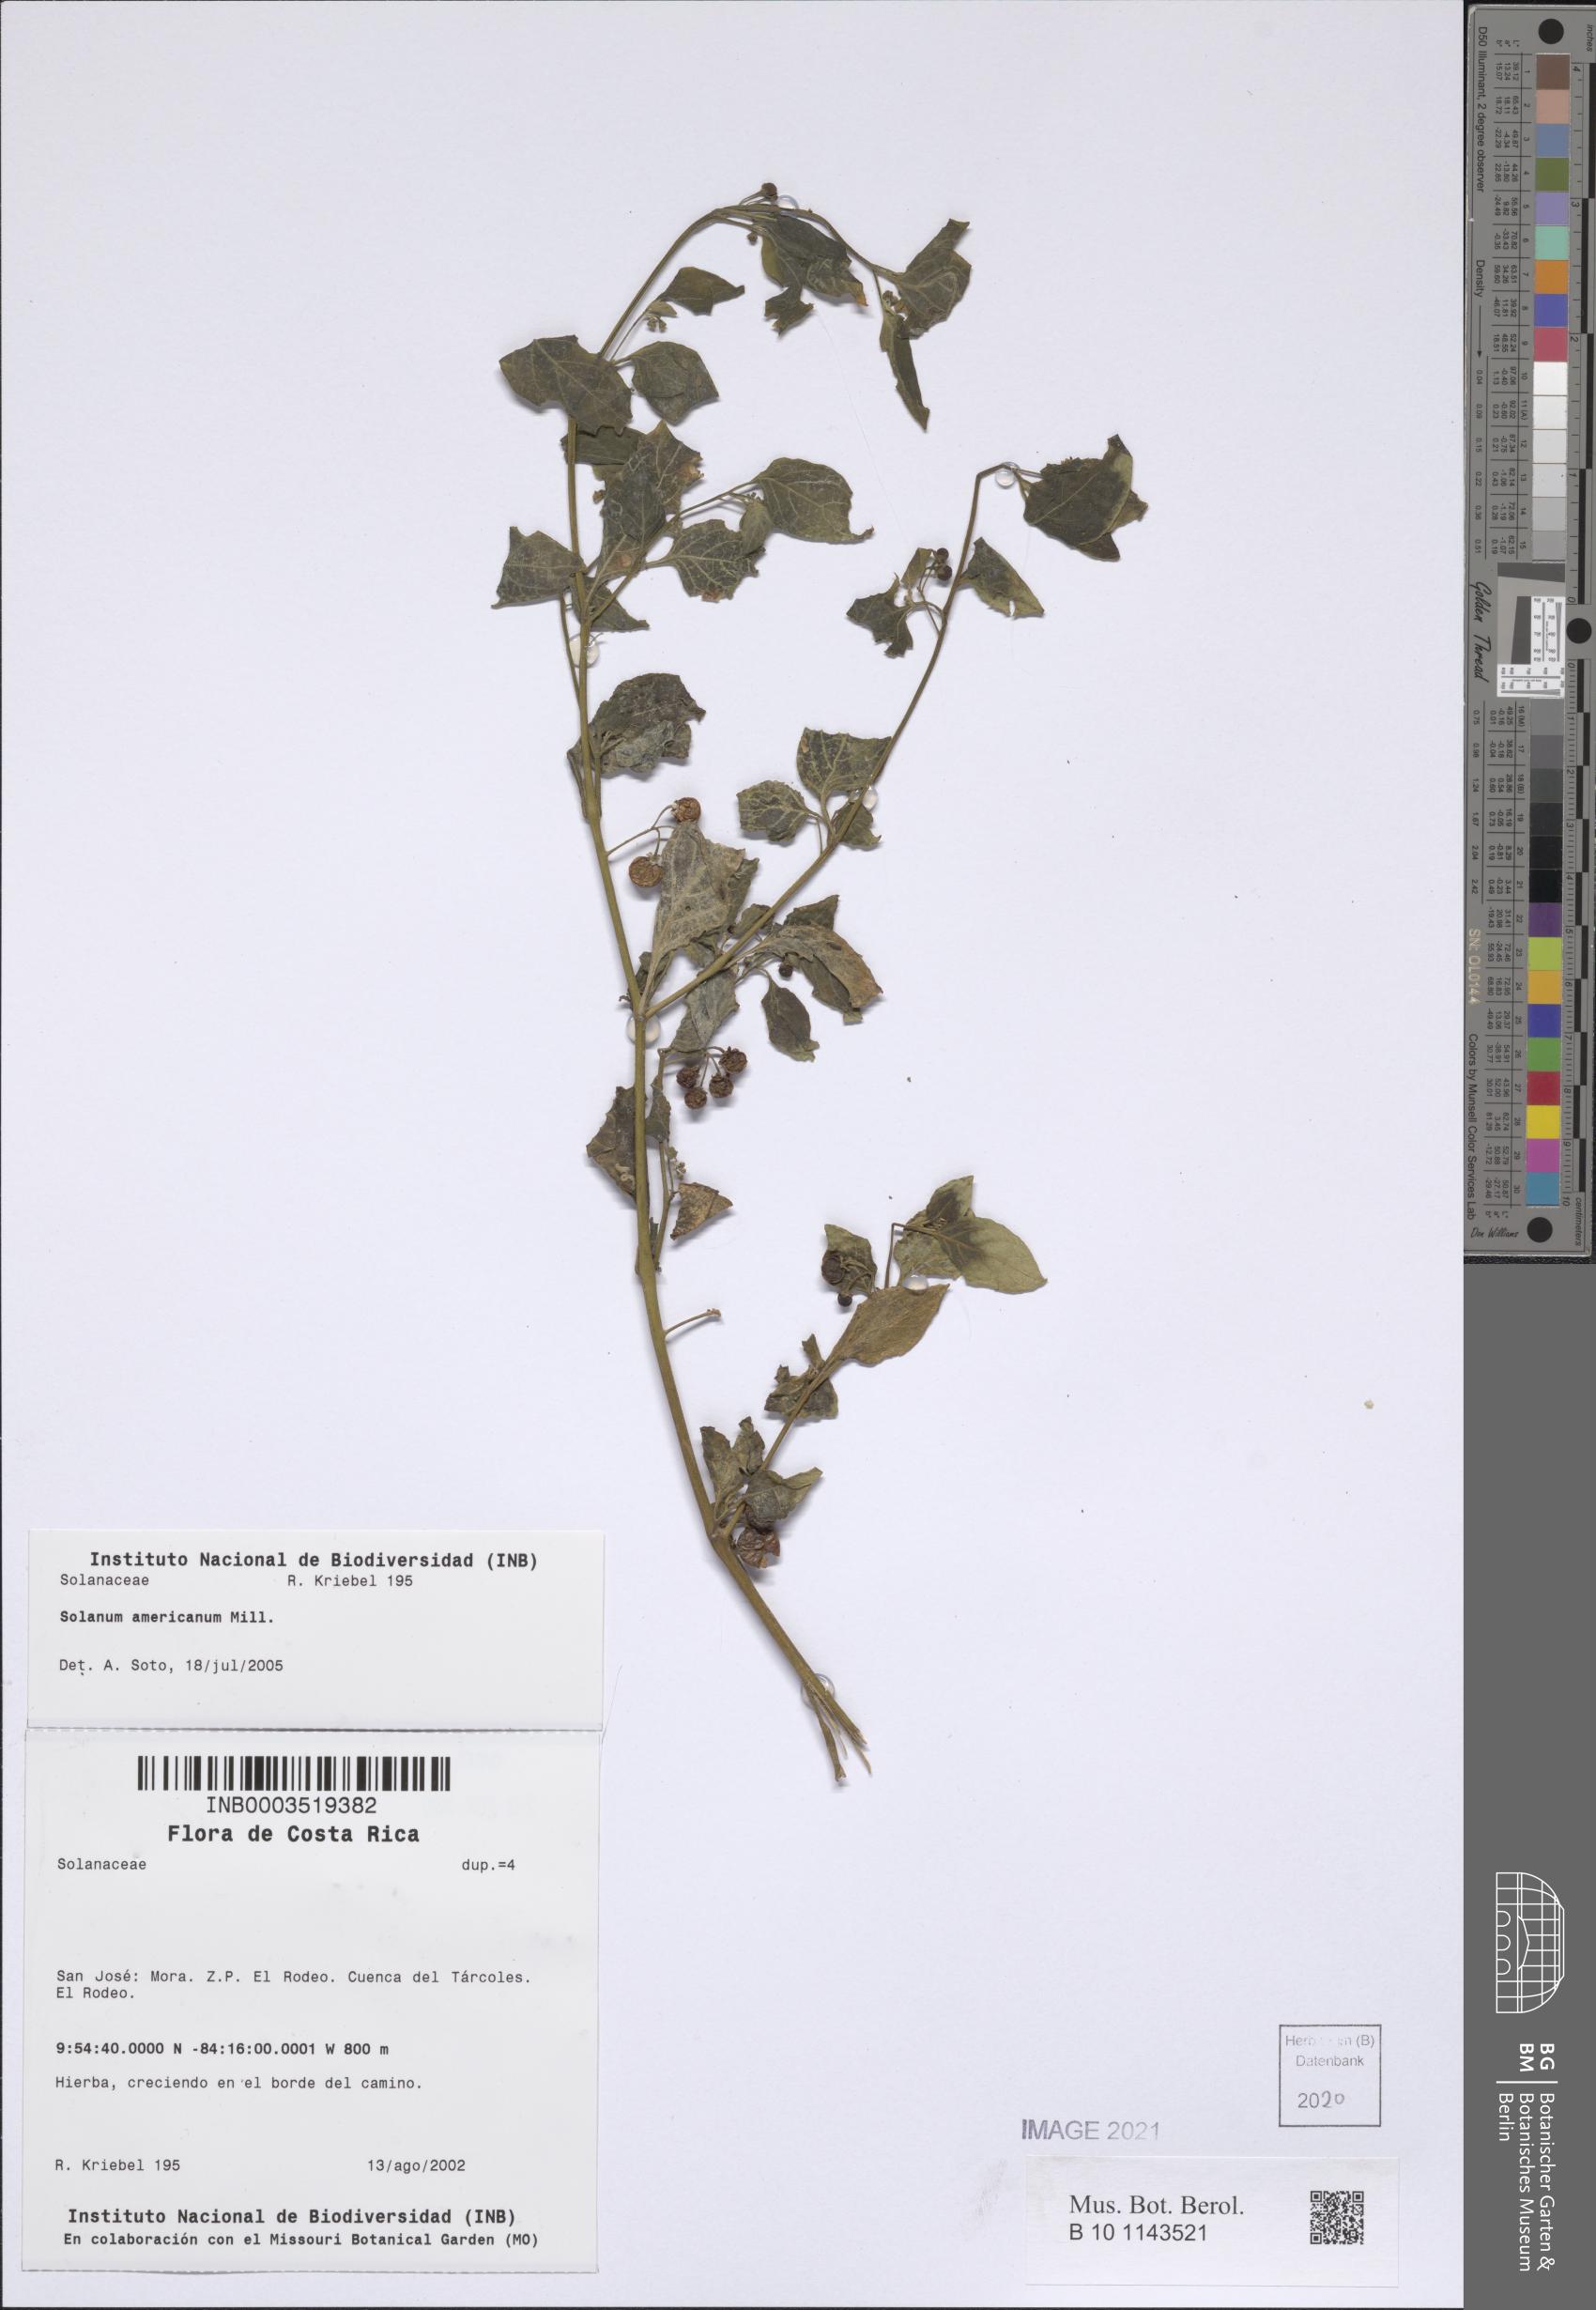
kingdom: Plantae
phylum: Tracheophyta
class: Magnoliopsida
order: Solanales
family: Solanaceae
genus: Solanum
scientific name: Solanum americanum
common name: American black nightshade
